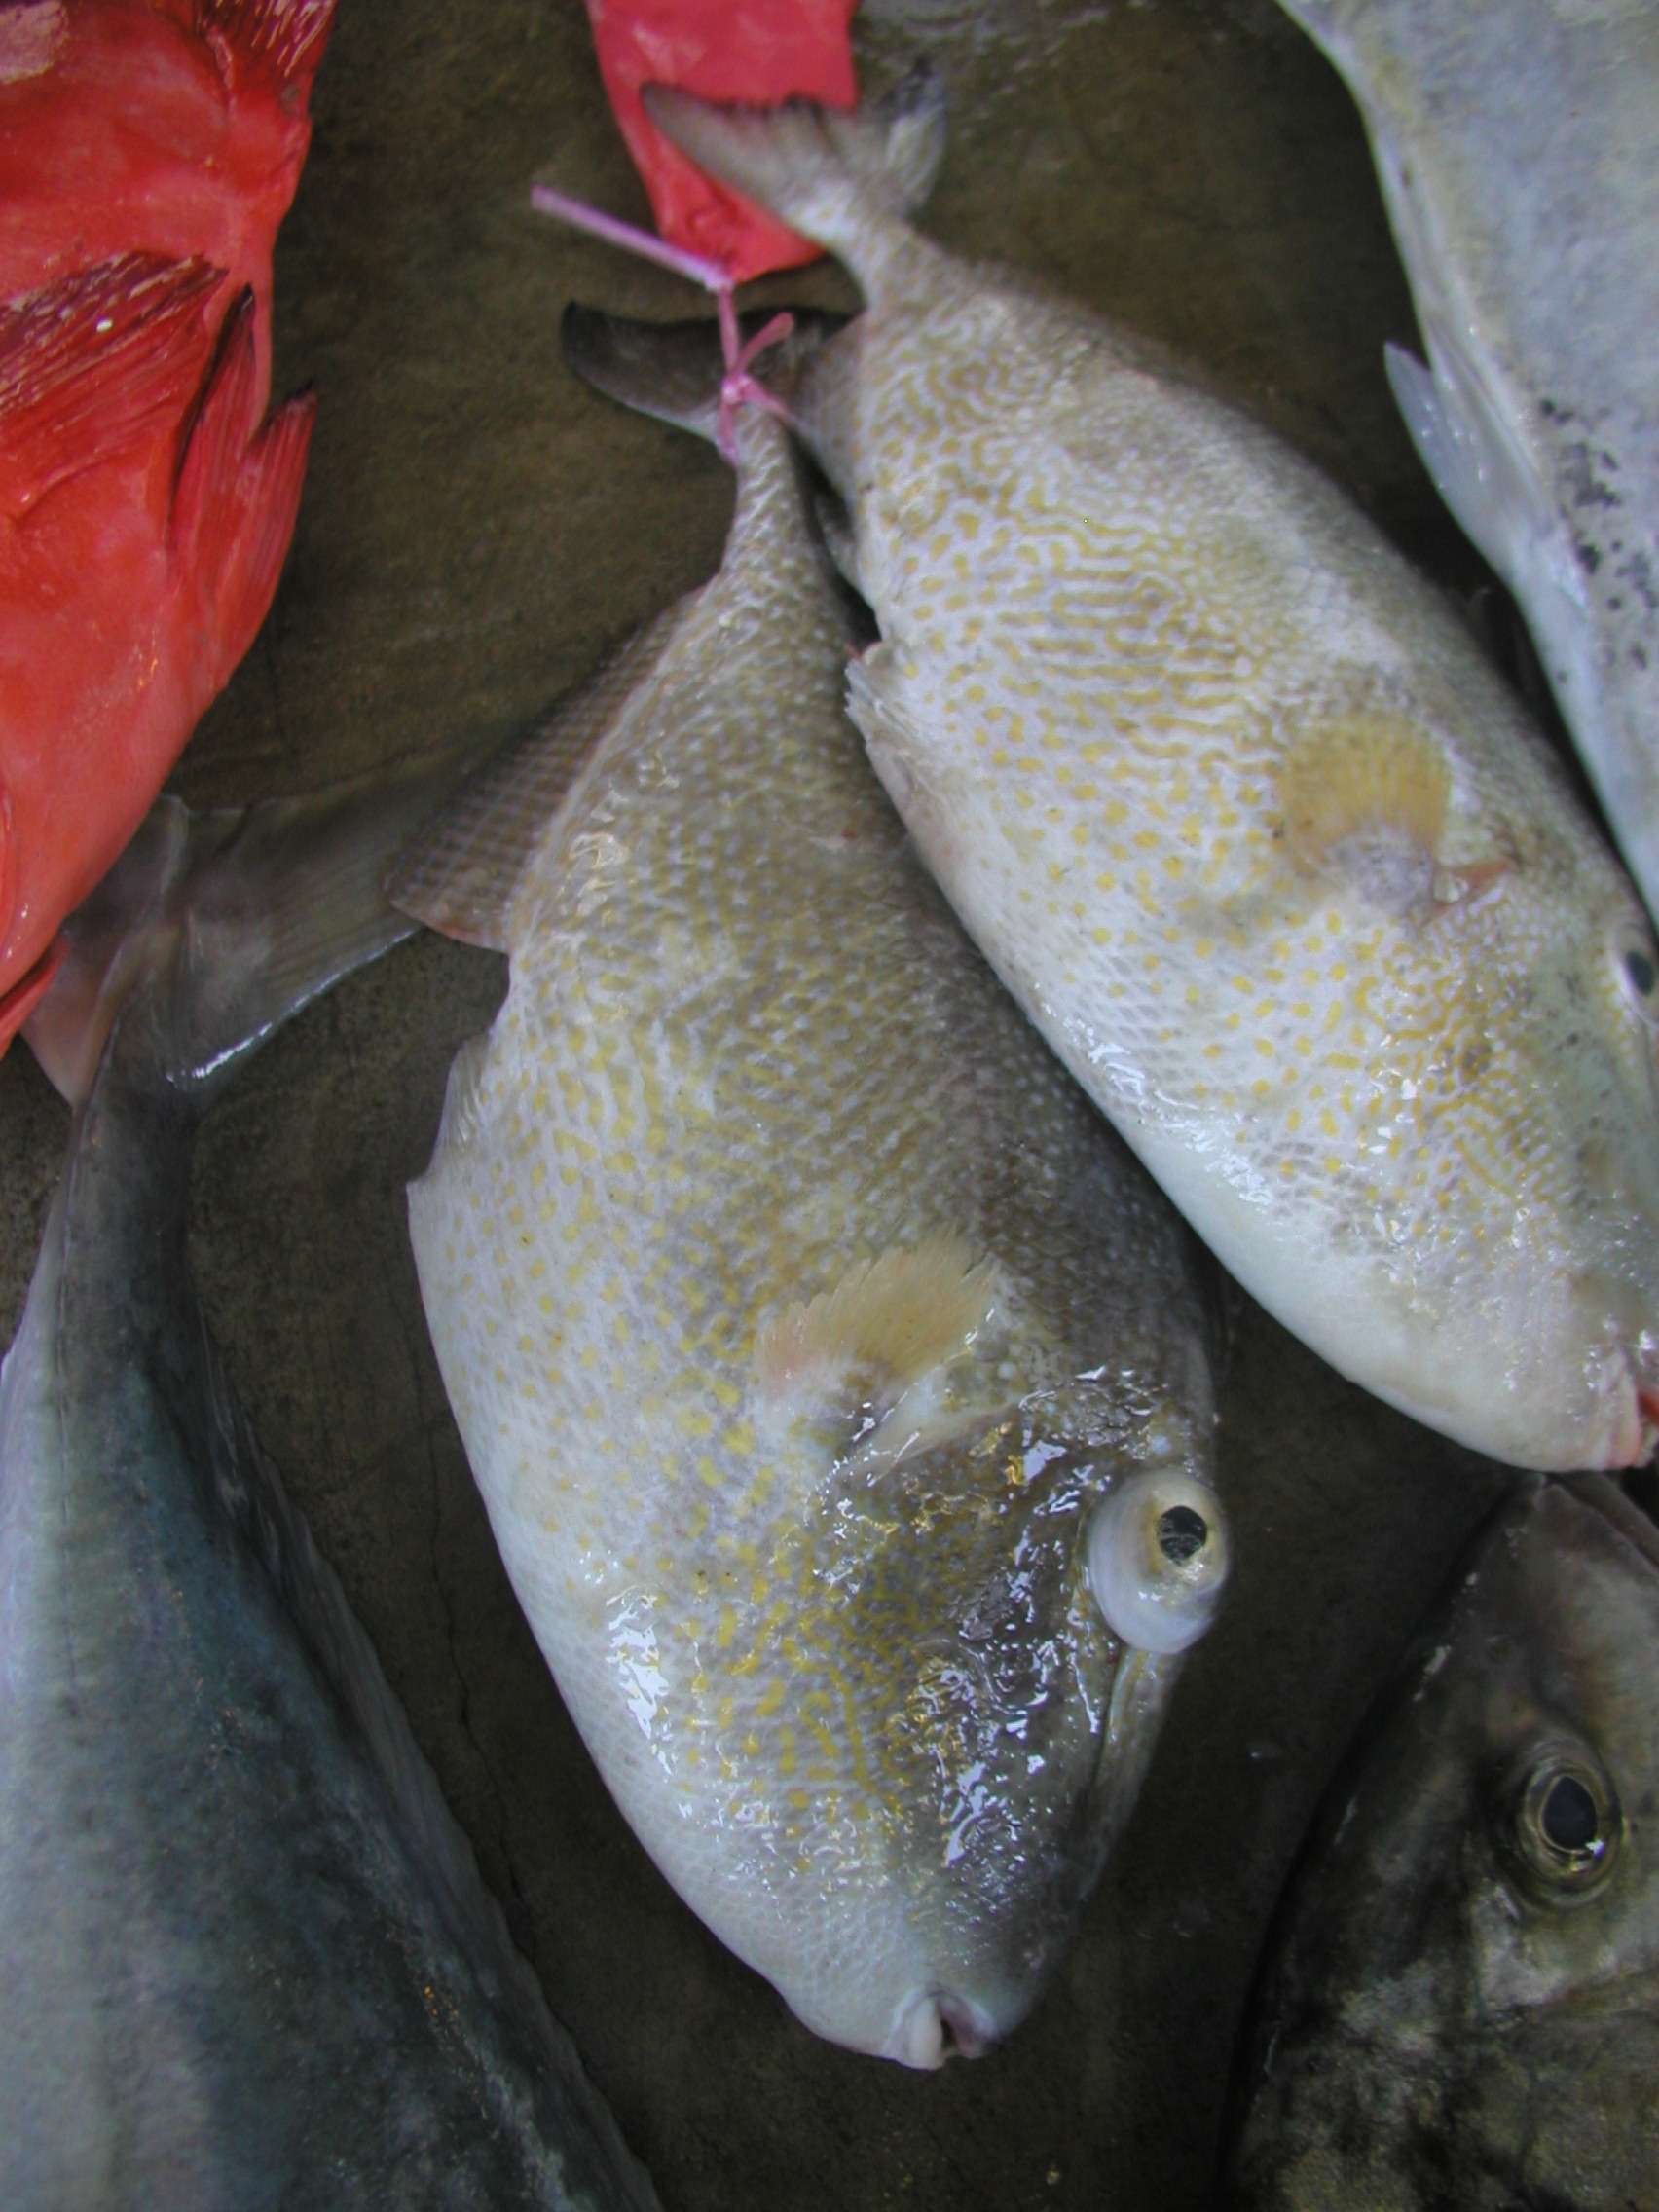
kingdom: Animalia
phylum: Chordata
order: Tetraodontiformes
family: Balistidae
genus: Abalistes
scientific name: Abalistes stellaris
